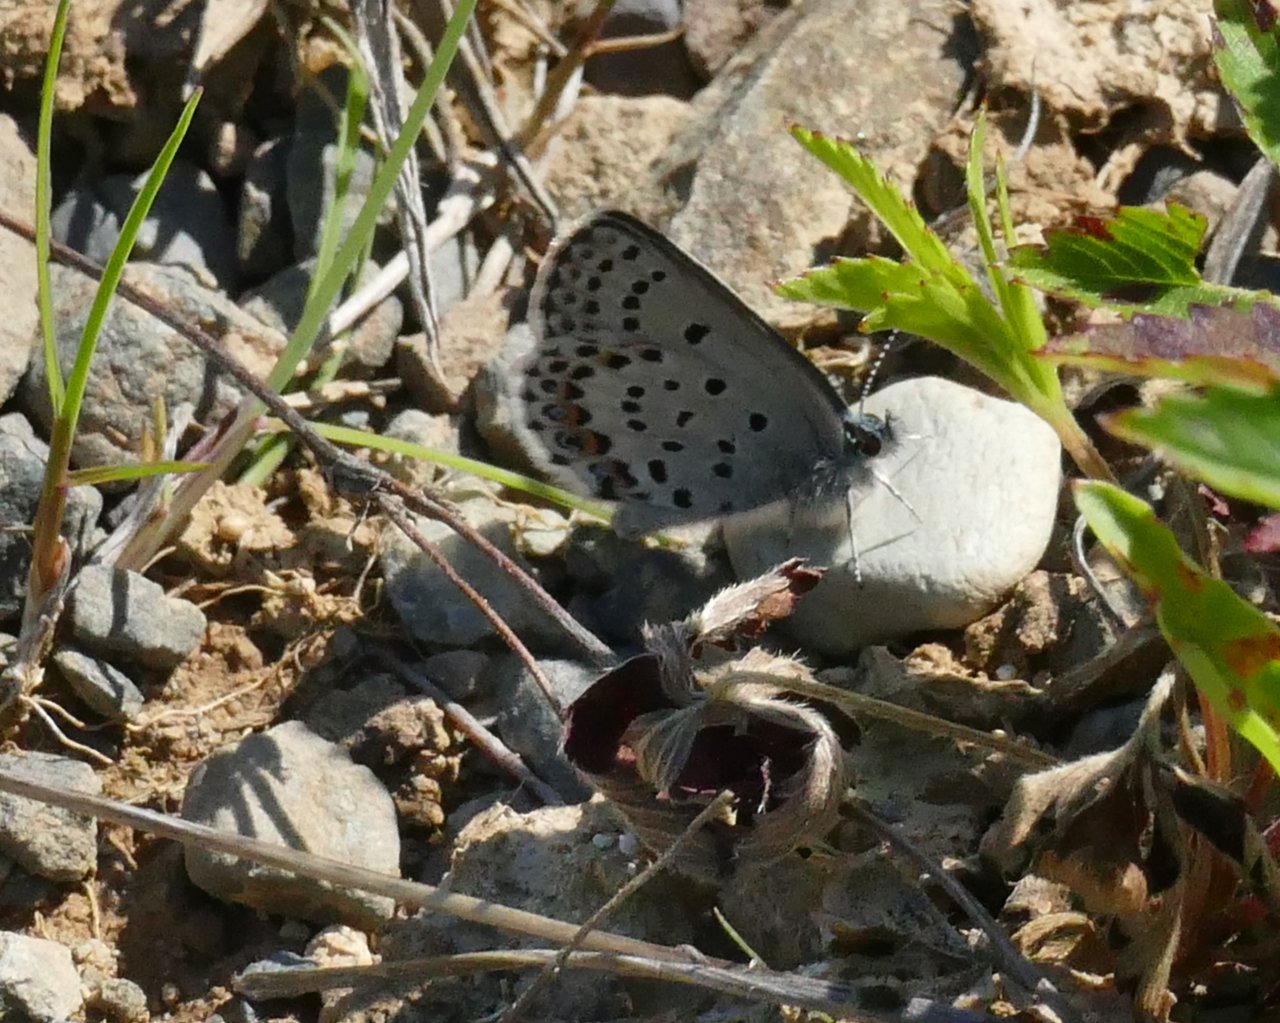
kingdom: Animalia
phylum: Arthropoda
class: Insecta
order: Lepidoptera
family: Lycaenidae
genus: Lycaeides
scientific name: Lycaeides idas
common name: Northern Blue
